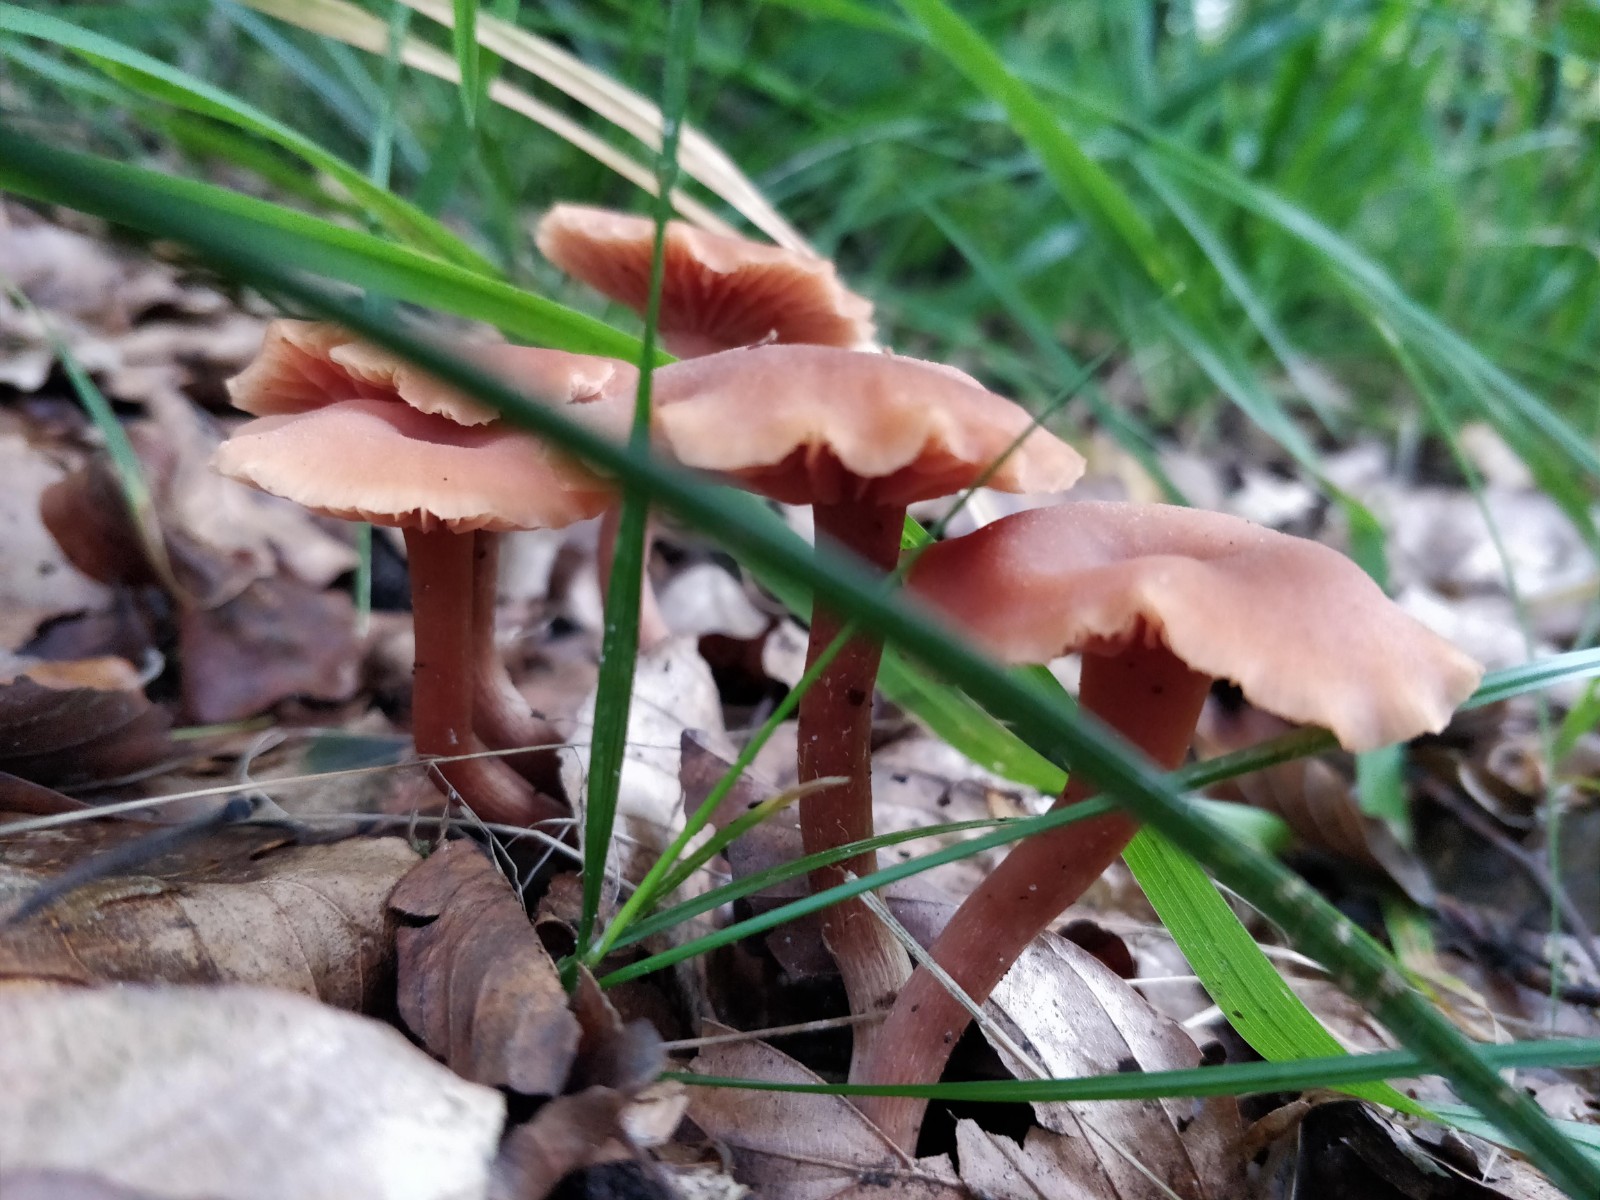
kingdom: Fungi
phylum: Basidiomycota
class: Agaricomycetes
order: Agaricales
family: Hydnangiaceae
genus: Laccaria
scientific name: Laccaria laccata
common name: rød ametysthat
